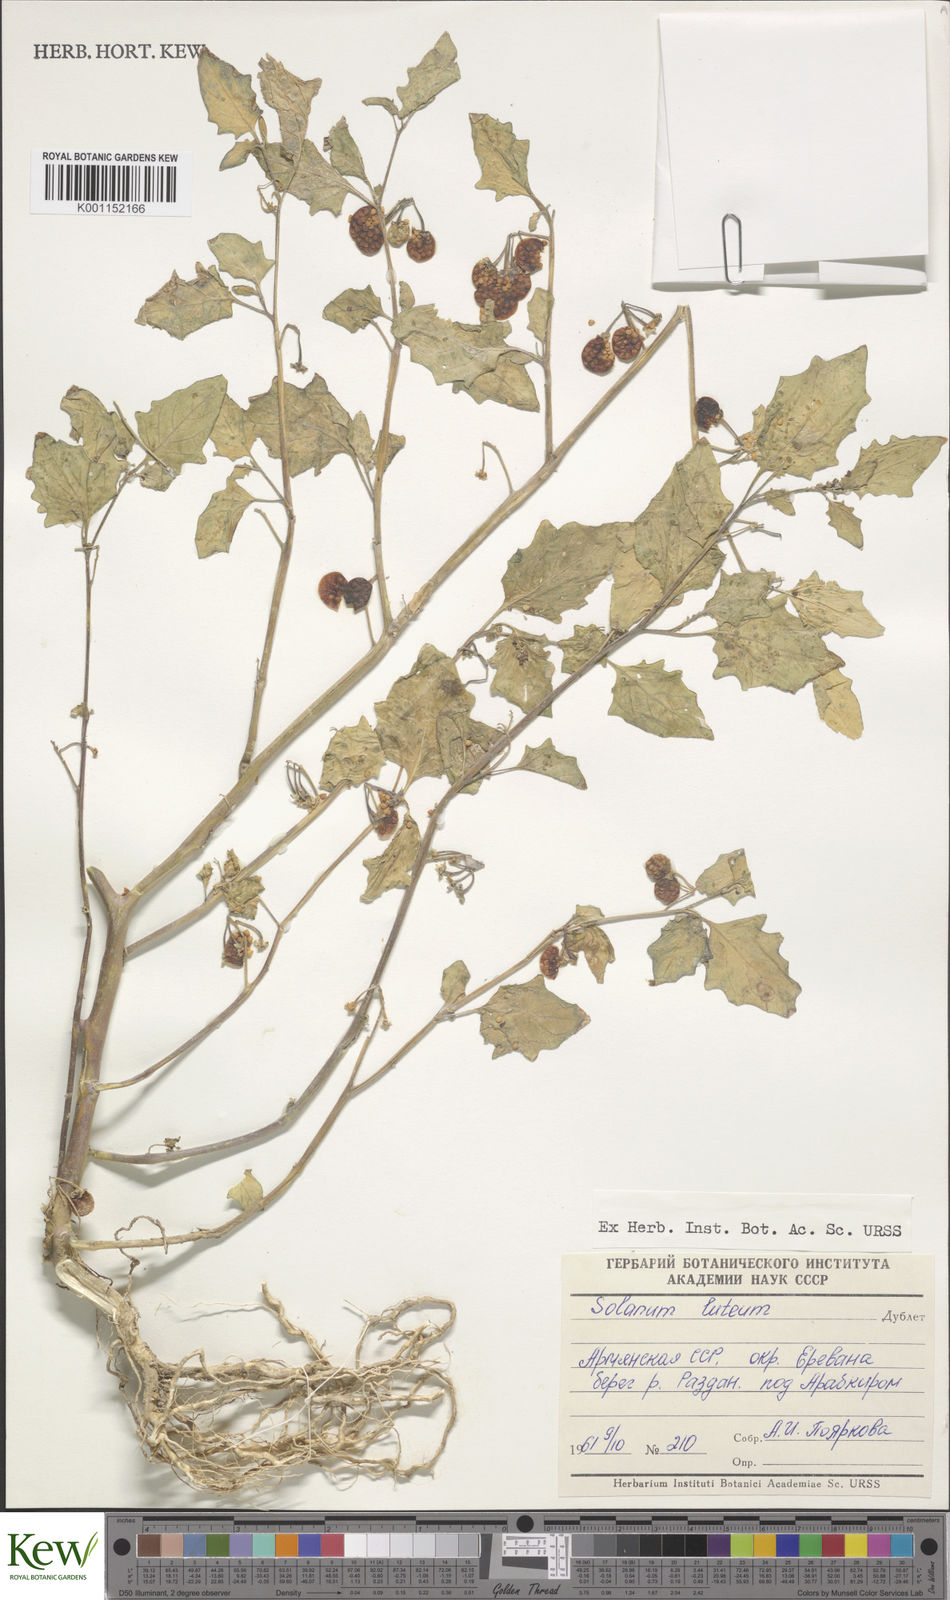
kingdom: Plantae
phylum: Tracheophyta
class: Magnoliopsida
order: Solanales
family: Solanaceae
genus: Solanum
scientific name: Solanum villosum
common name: Red nightshade
